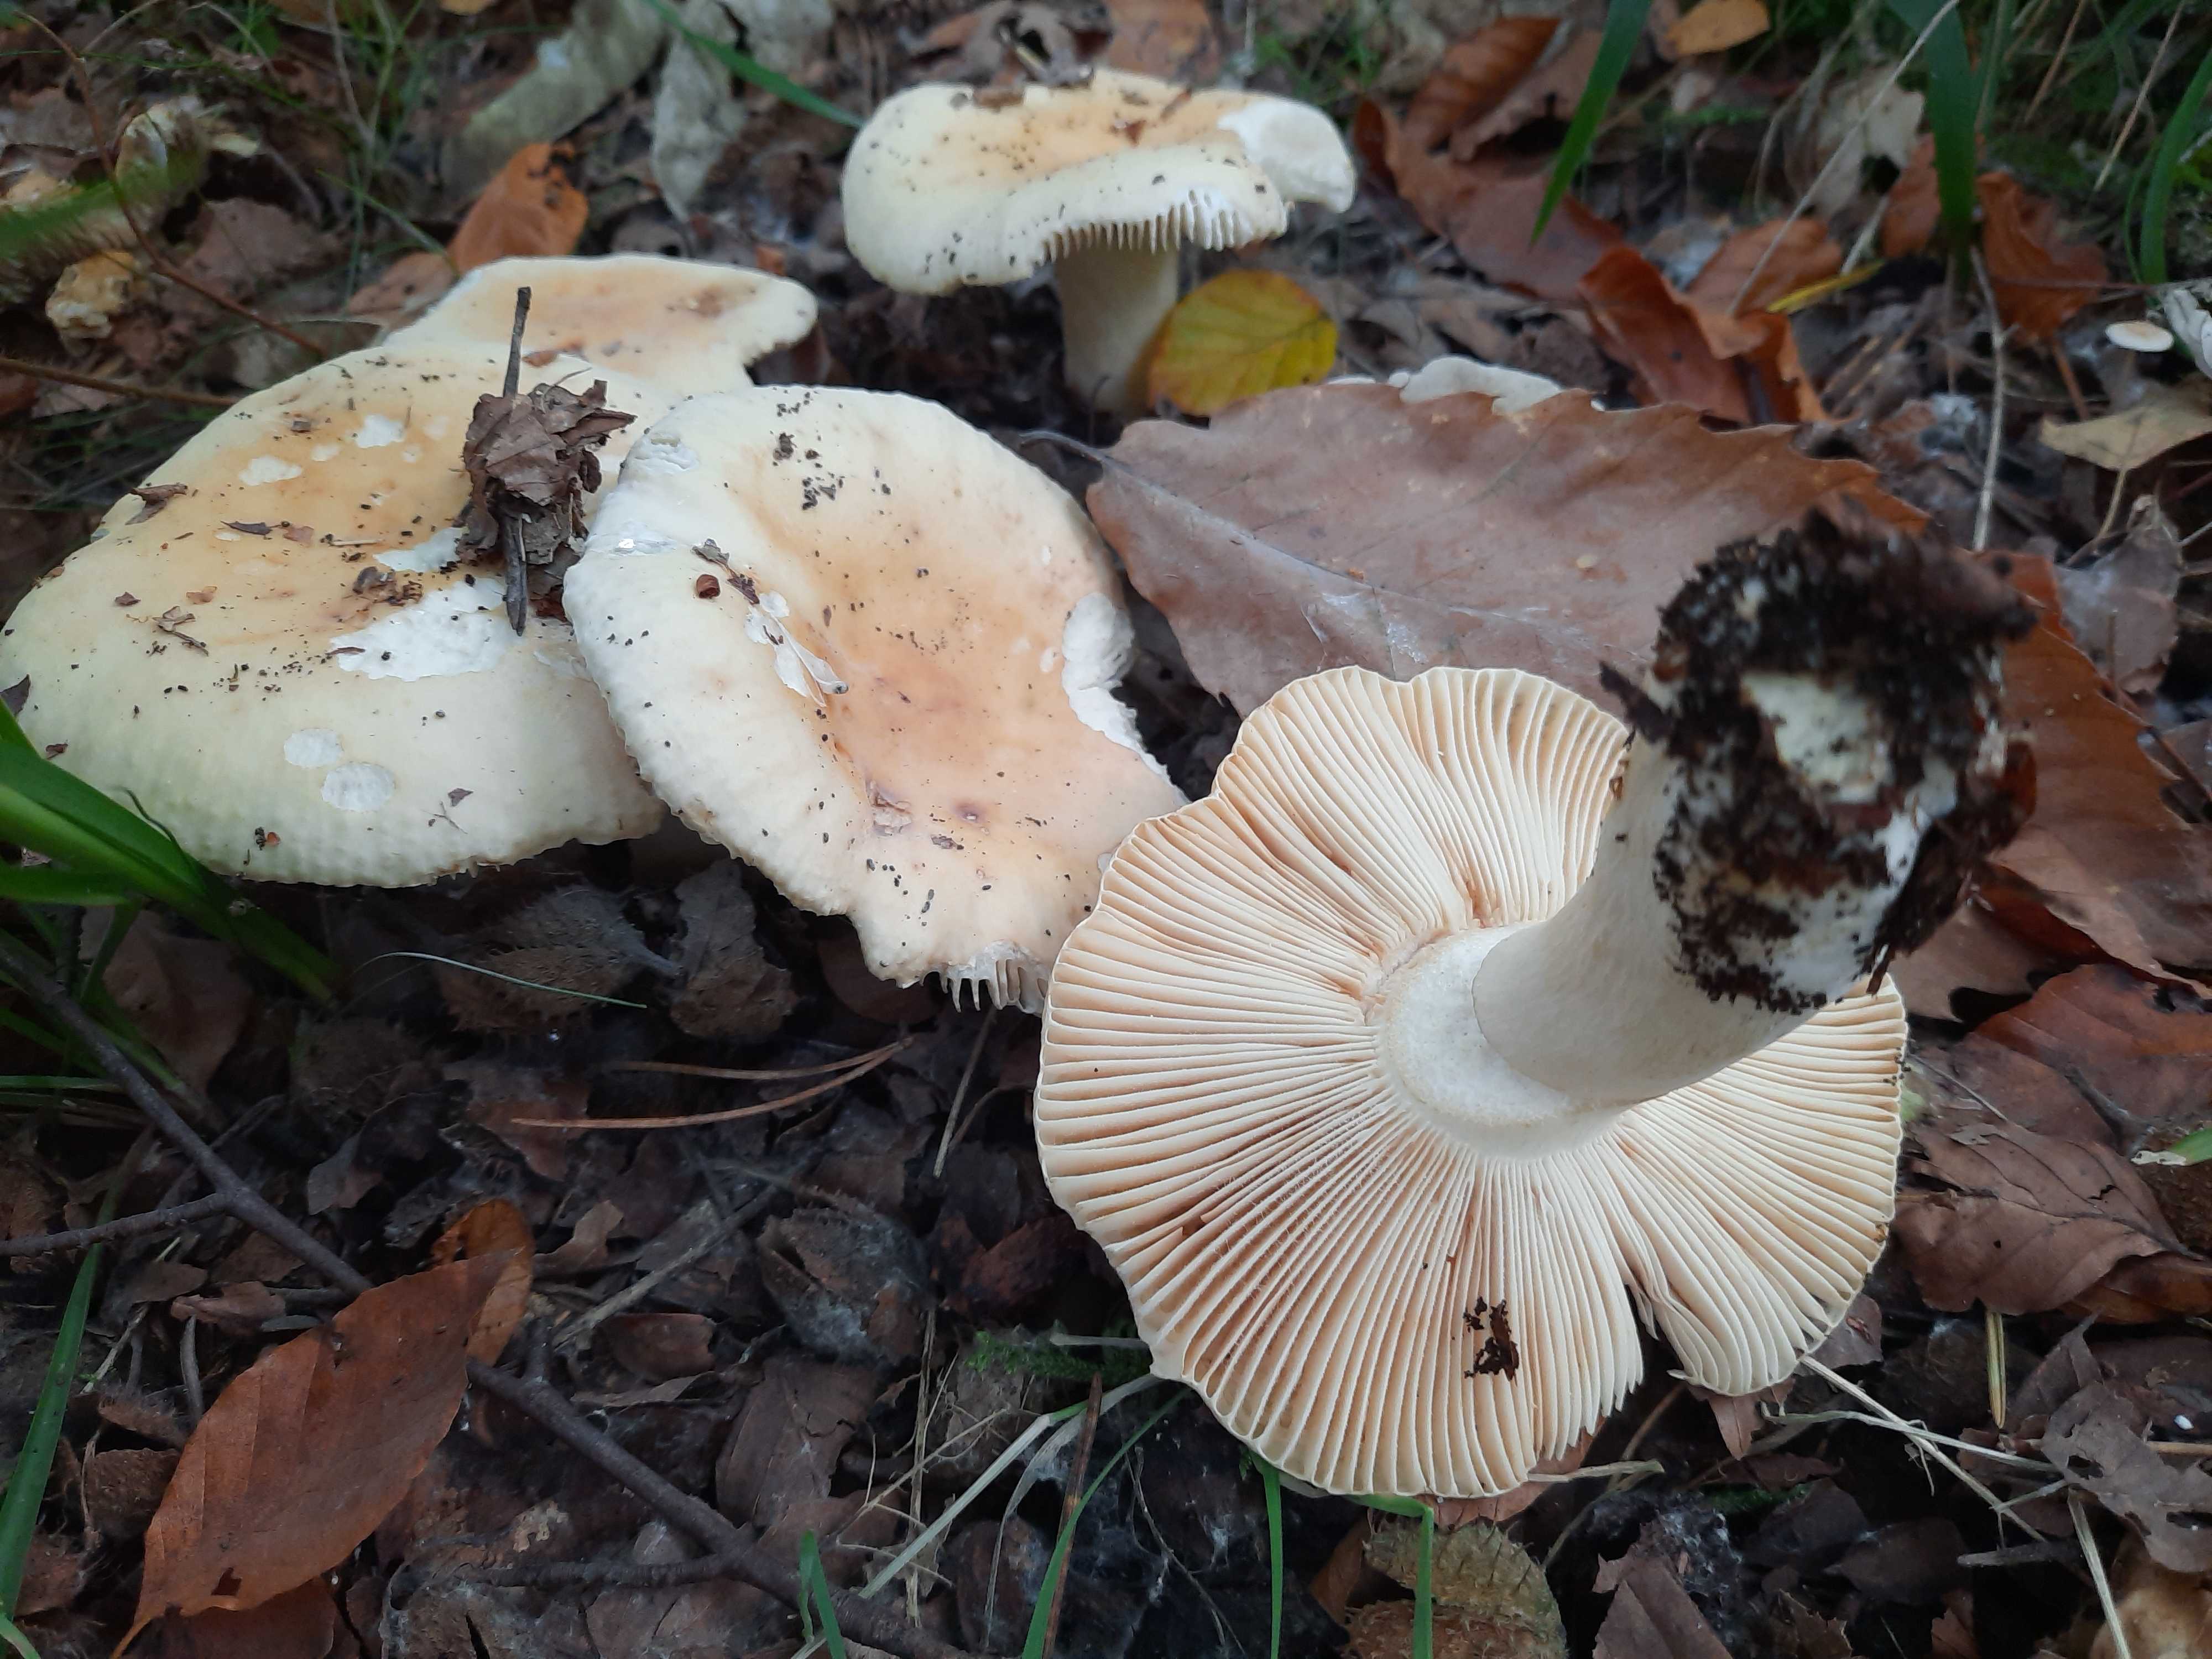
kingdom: Fungi
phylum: Basidiomycota
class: Agaricomycetes
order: Russulales
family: Russulaceae
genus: Russula
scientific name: Russula fellea
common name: galde-skørhat
